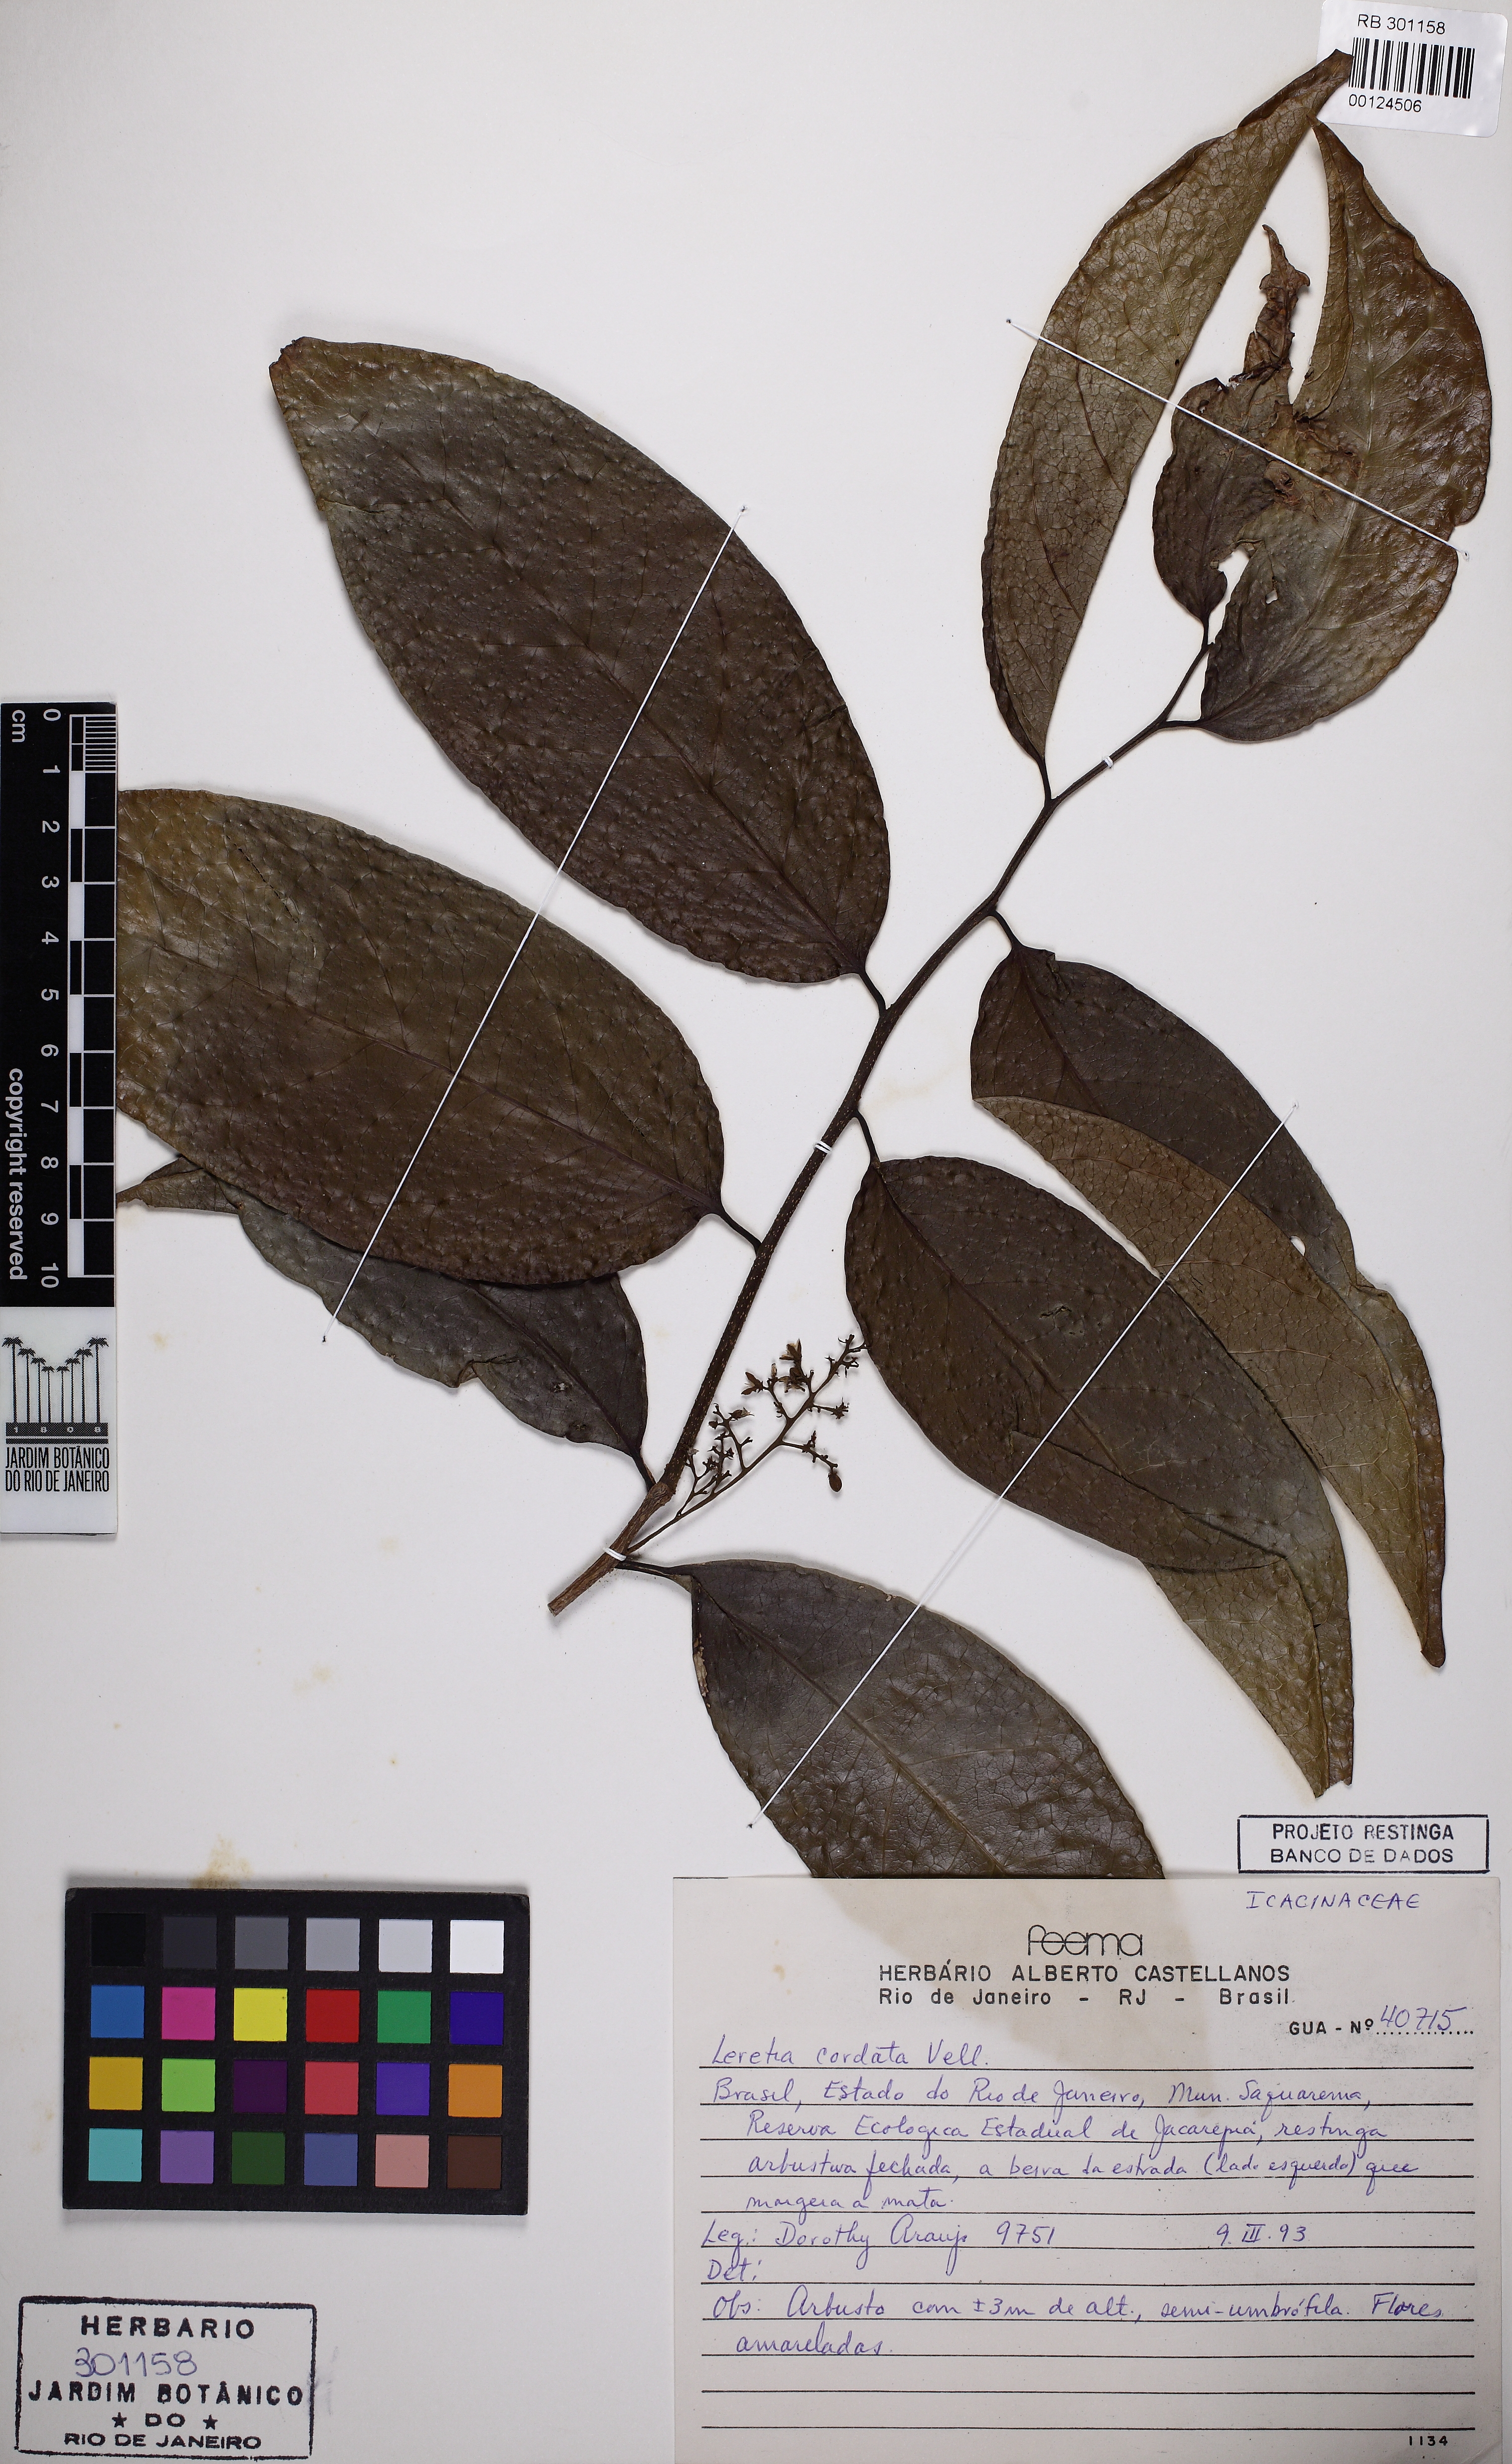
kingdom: Plantae
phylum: Tracheophyta
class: Magnoliopsida
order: Icacinales
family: Icacinaceae
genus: Leretia
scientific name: Leretia cordata
